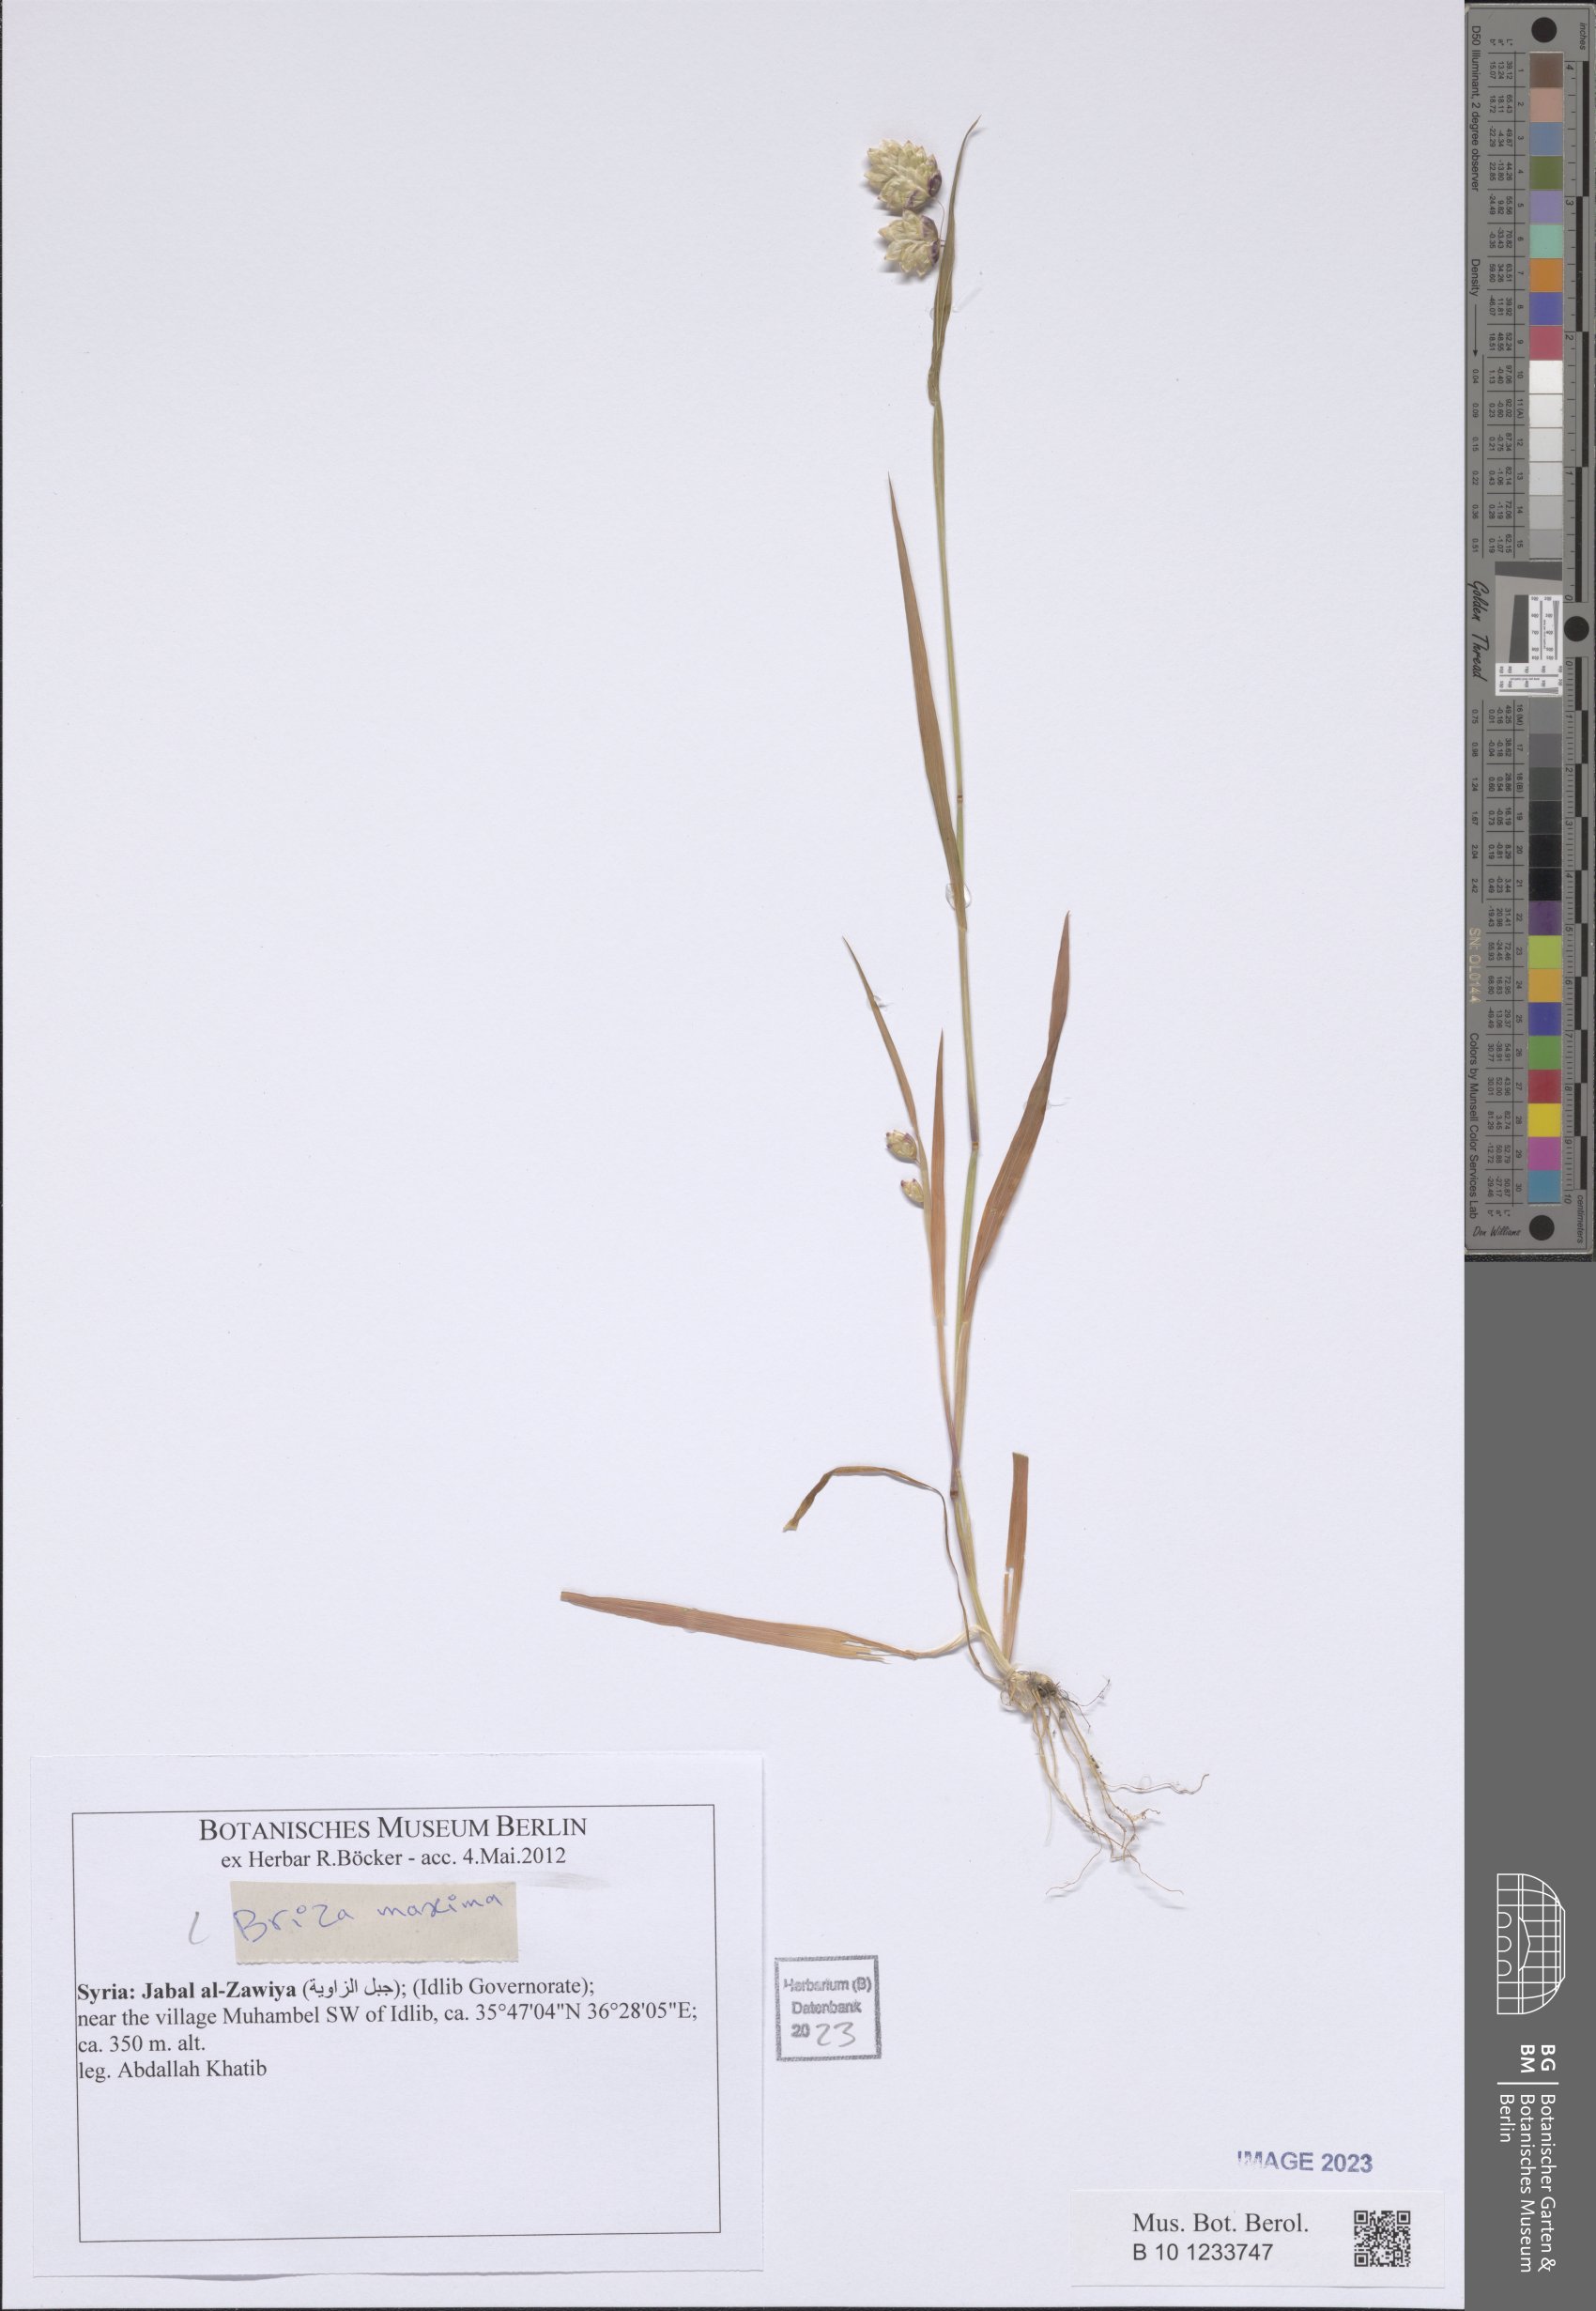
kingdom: Plantae
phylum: Tracheophyta
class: Liliopsida
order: Poales
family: Poaceae
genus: Briza
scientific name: Briza maxima
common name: Big quakinggrass
